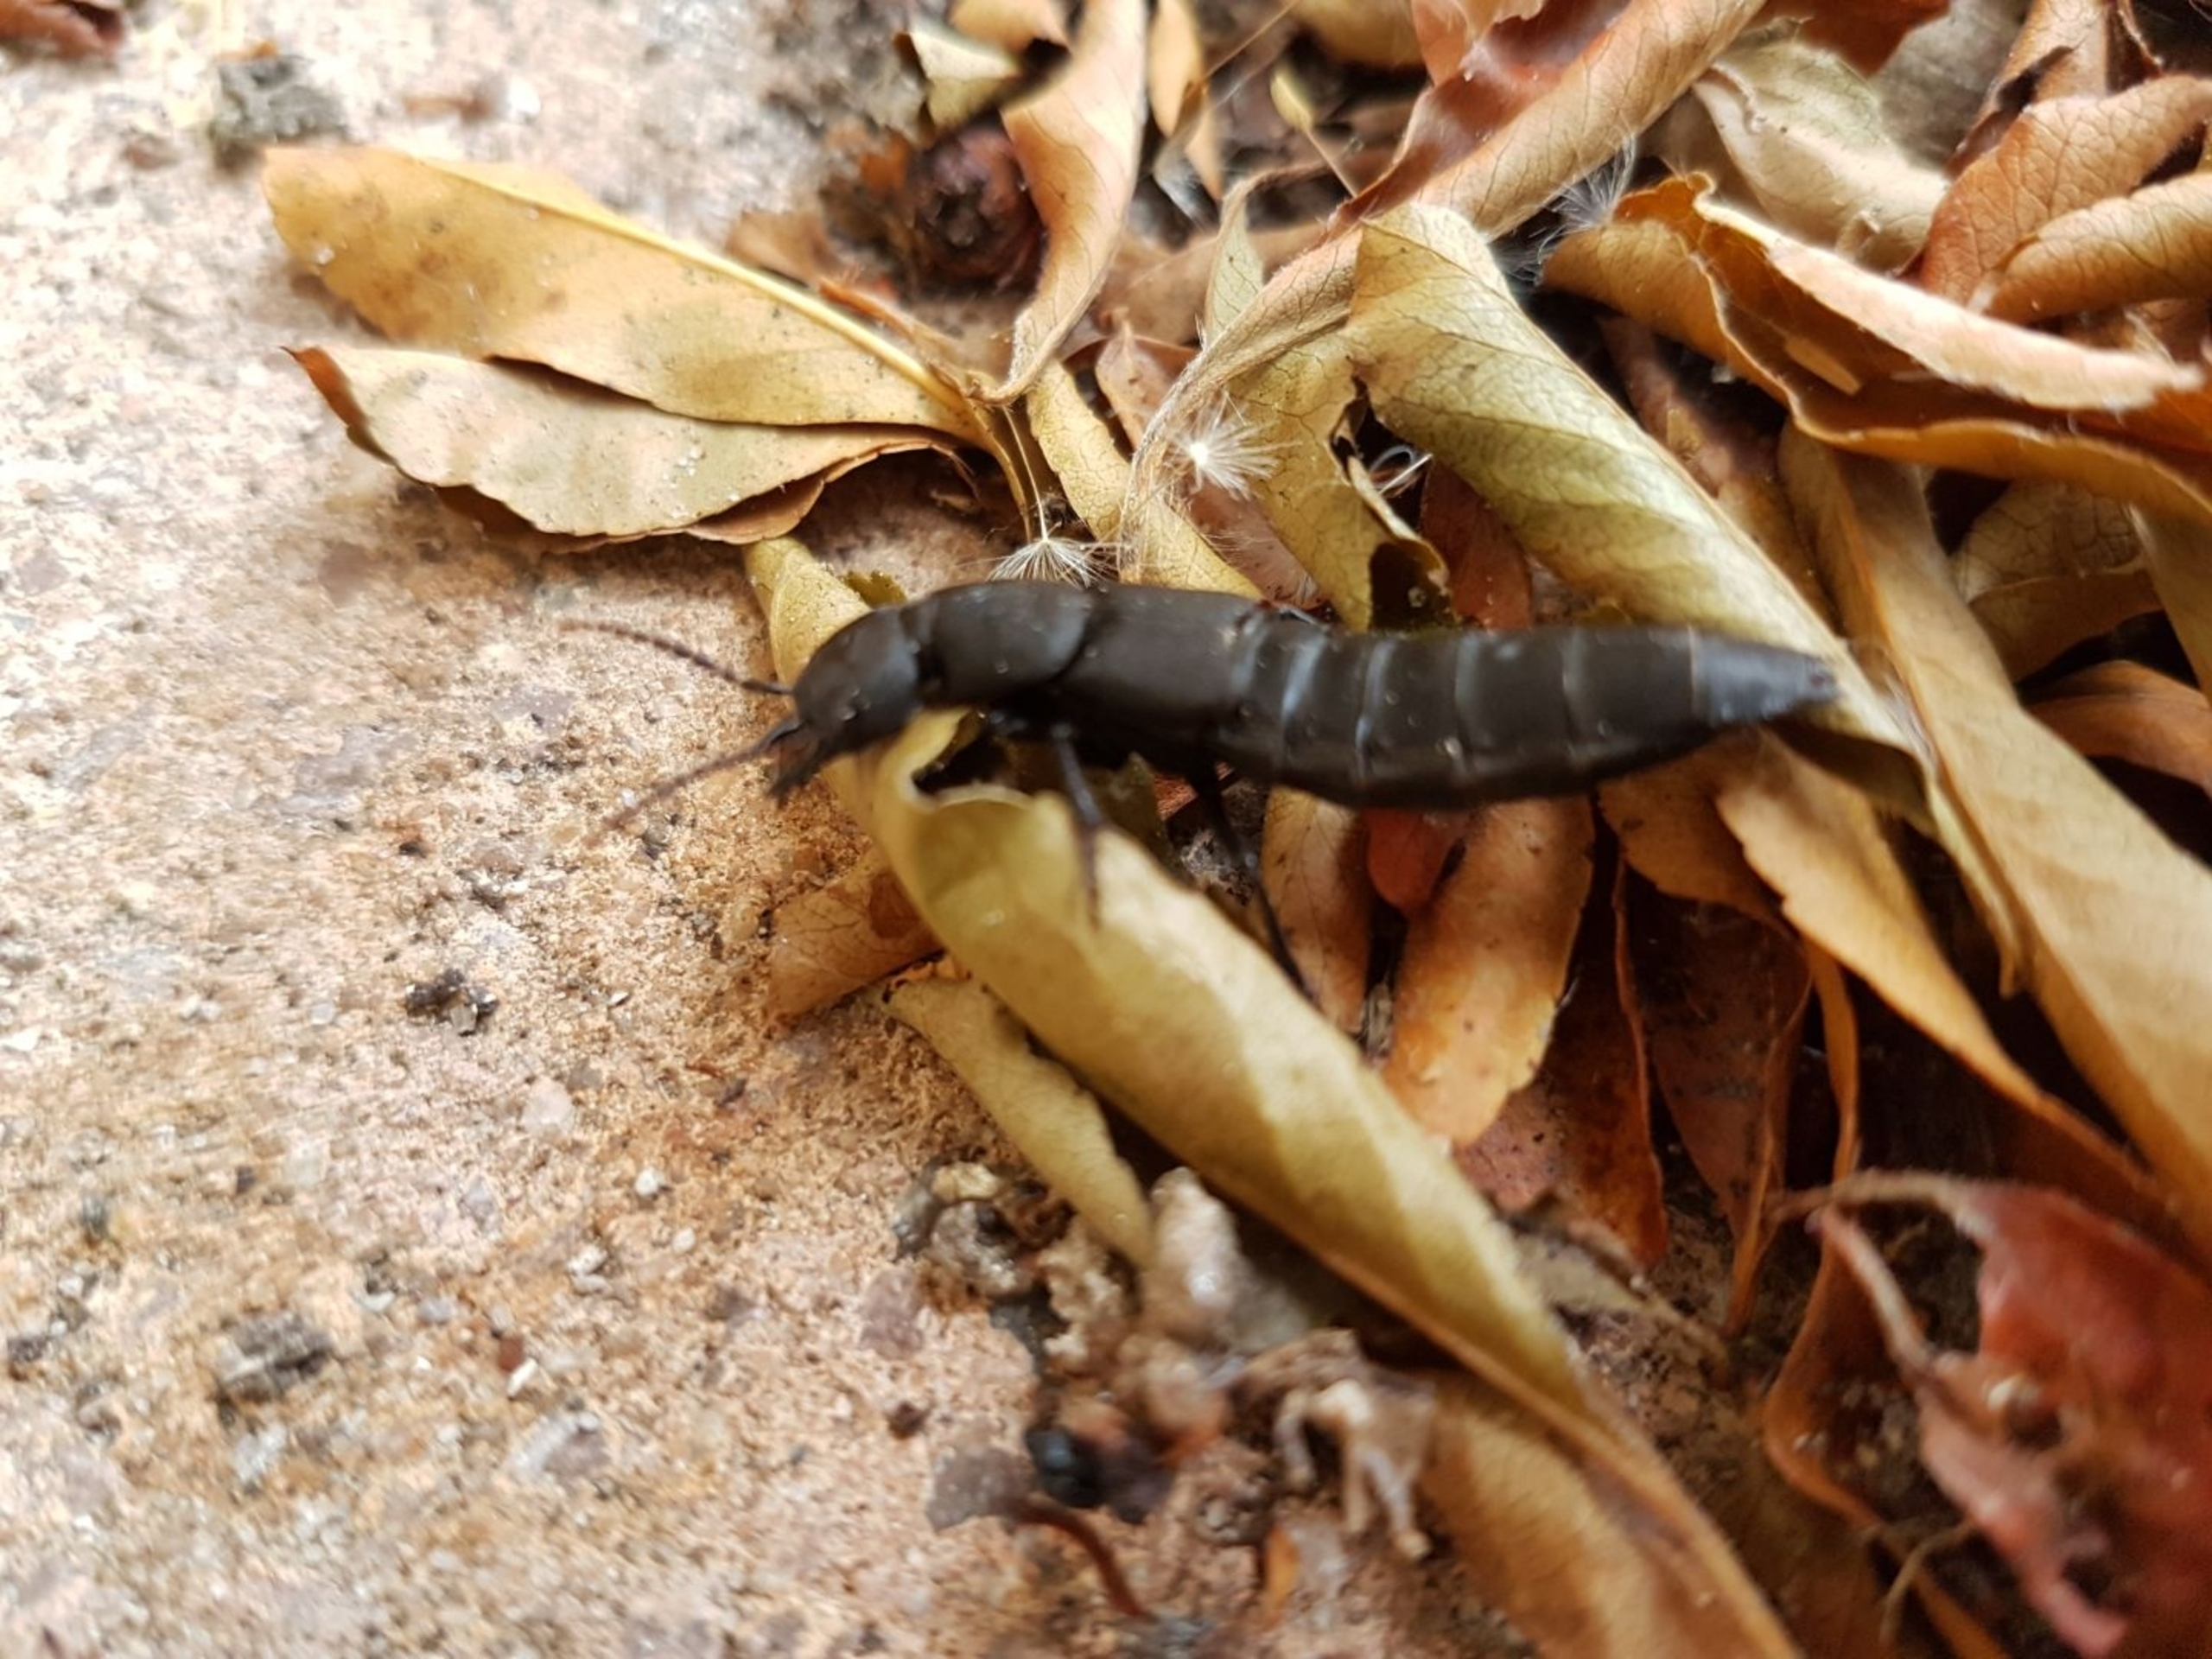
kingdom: Animalia
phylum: Arthropoda
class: Insecta
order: Coleoptera
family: Staphylinidae
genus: Ocypus
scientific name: Ocypus olens
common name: Stor rovbille
